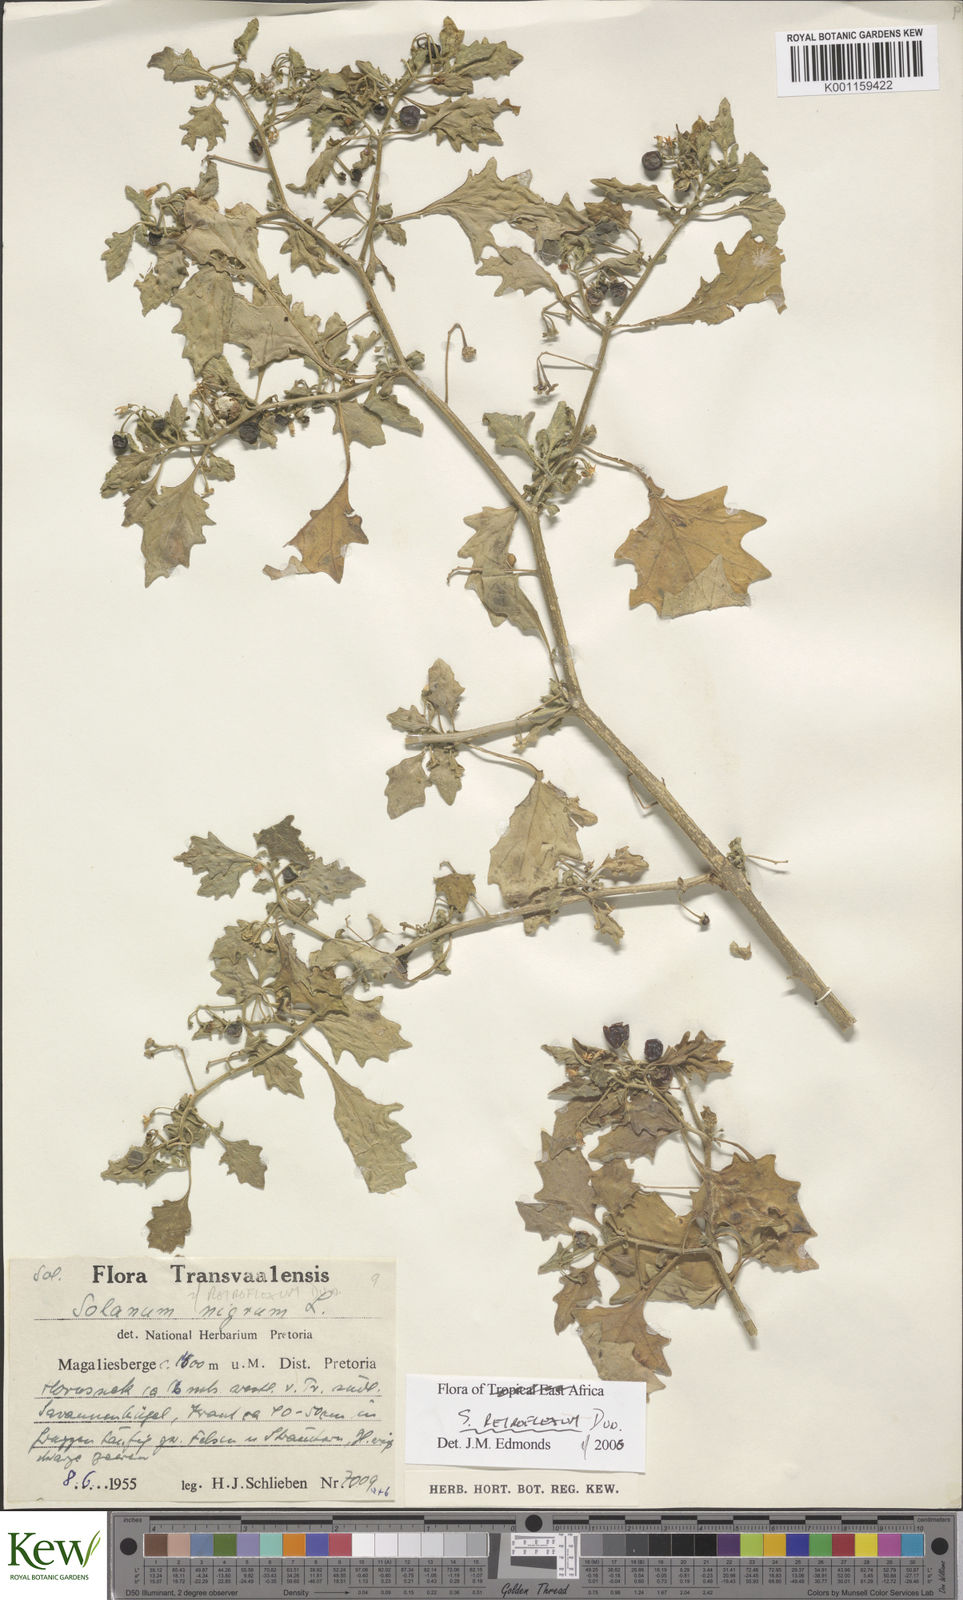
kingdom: Plantae
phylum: Tracheophyta
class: Magnoliopsida
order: Solanales
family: Solanaceae
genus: Solanum
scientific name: Solanum retroflexum
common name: Wonderberry
